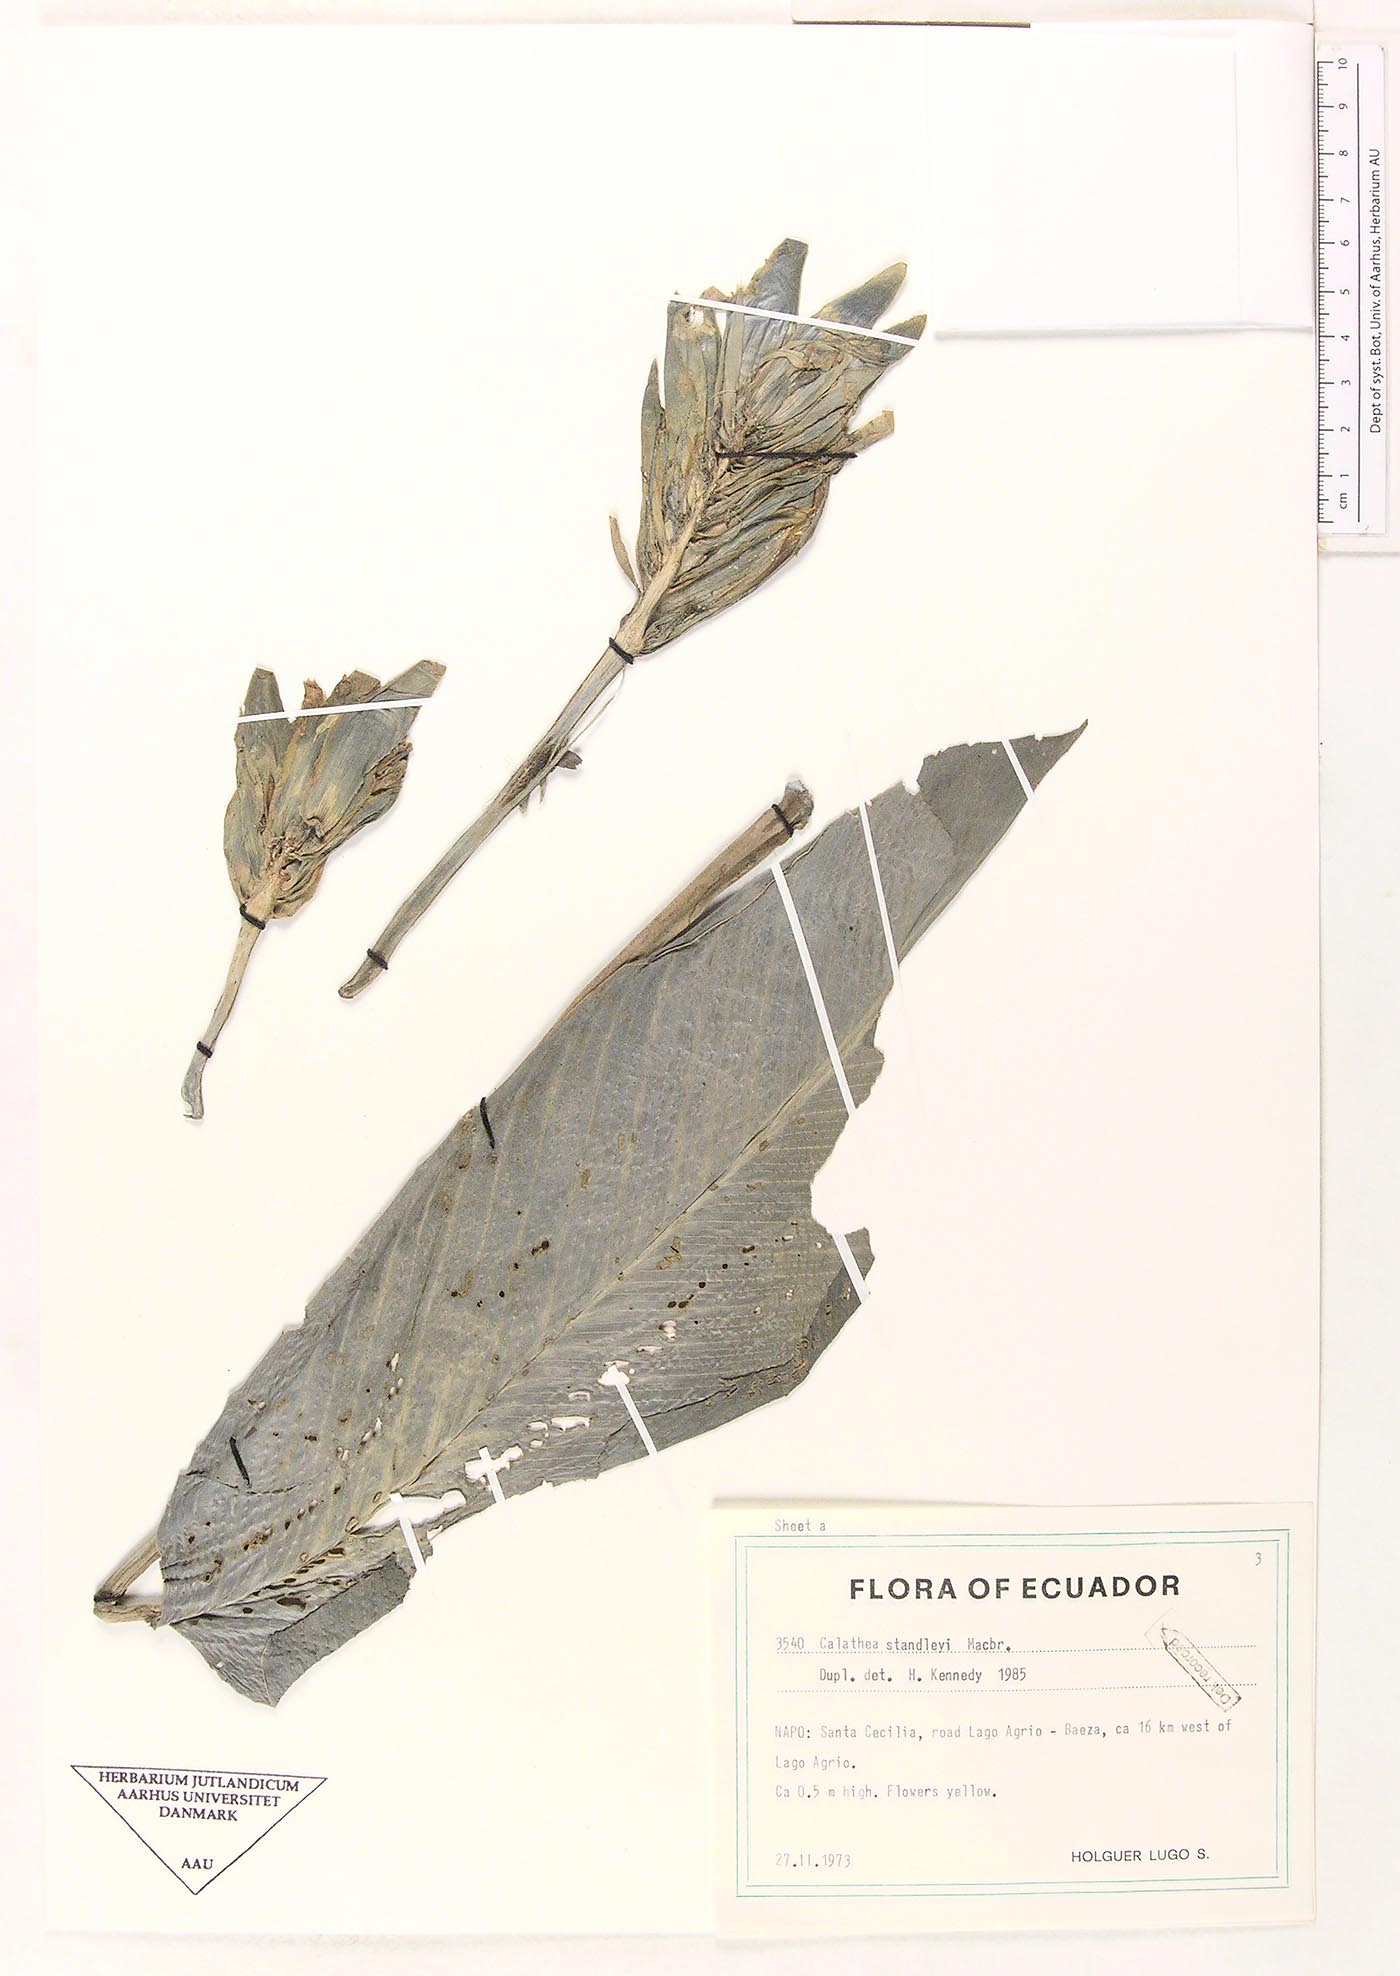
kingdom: Plantae
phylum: Tracheophyta
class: Liliopsida
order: Zingiberales
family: Marantaceae
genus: Goeppertia
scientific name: Goeppertia standleyi
